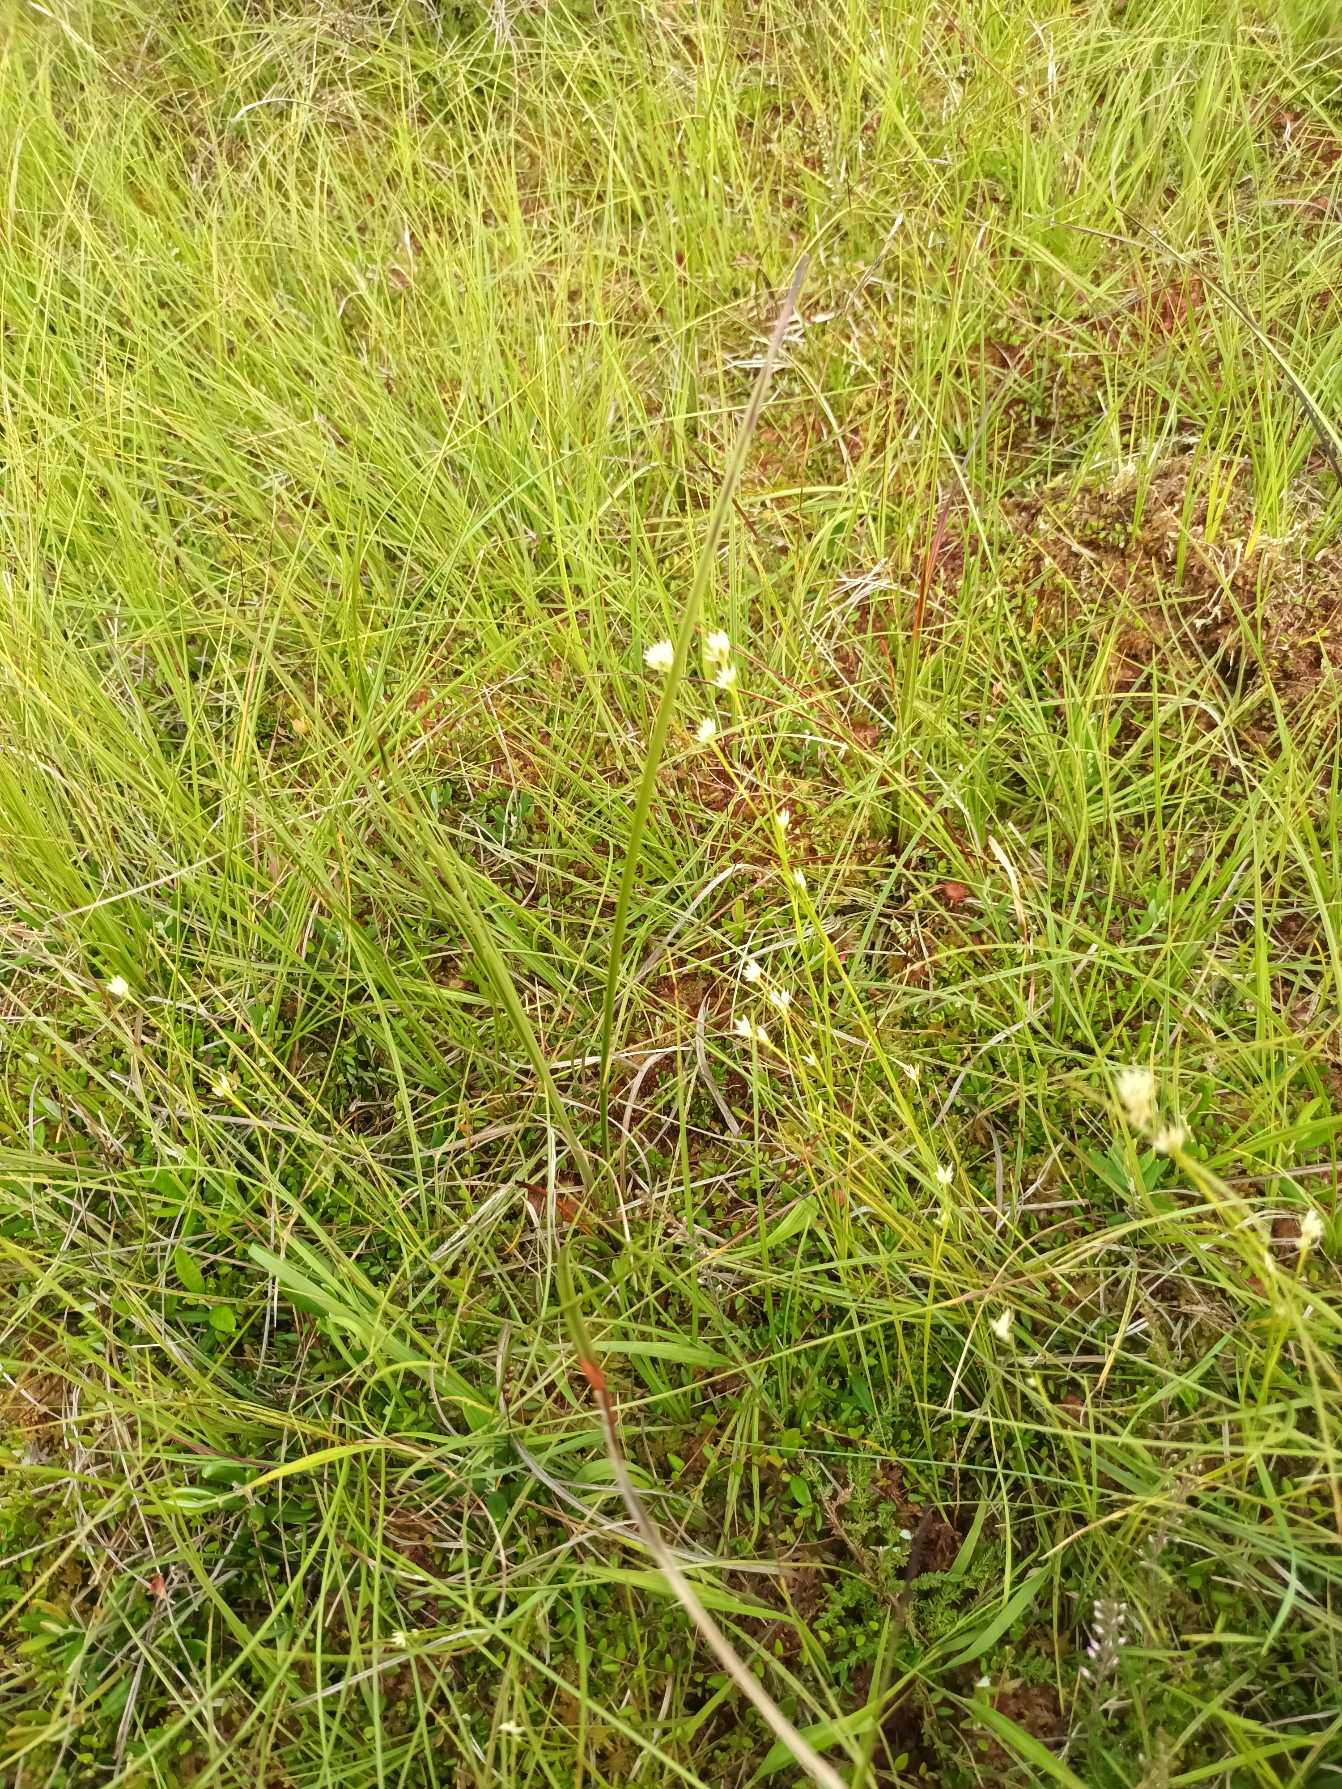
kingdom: Plantae
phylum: Tracheophyta
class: Liliopsida
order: Poales
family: Cyperaceae
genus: Rhynchospora
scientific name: Rhynchospora alba
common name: Hvid næbfrø
